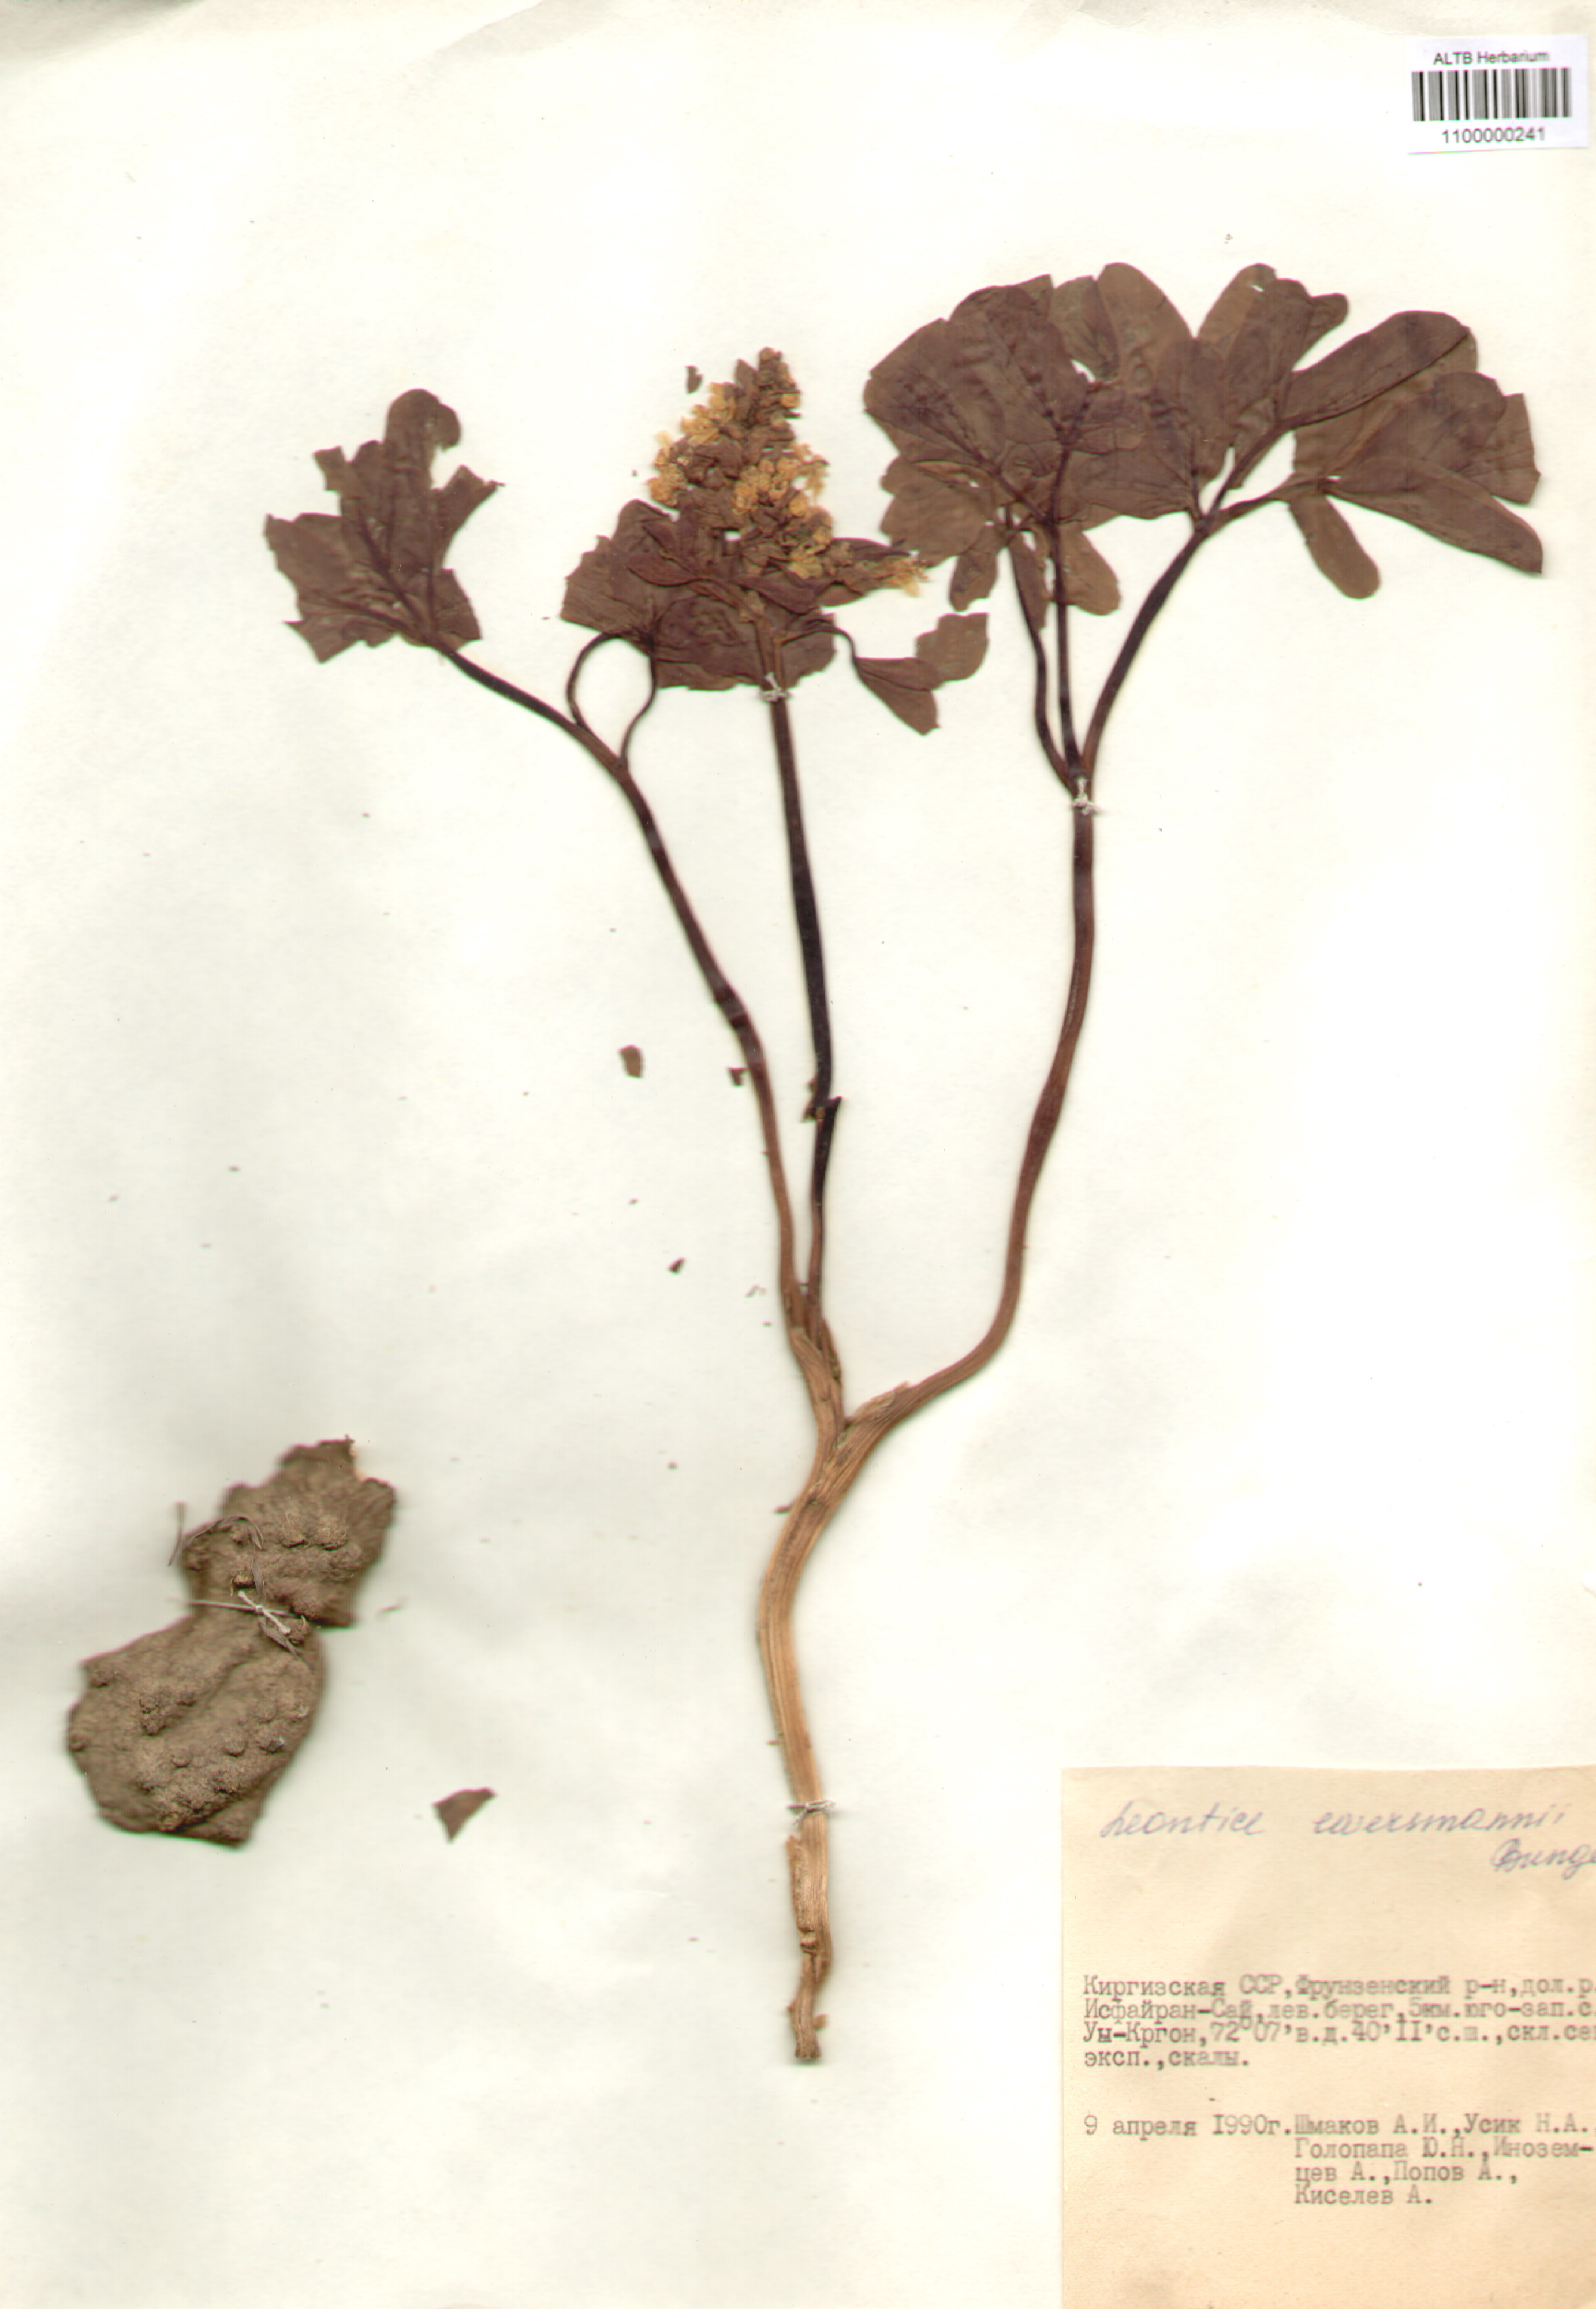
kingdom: Plantae
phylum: Tracheophyta
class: Magnoliopsida
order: Ranunculales
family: Berberidaceae
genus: Leontice
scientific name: Leontice leontopetalum
